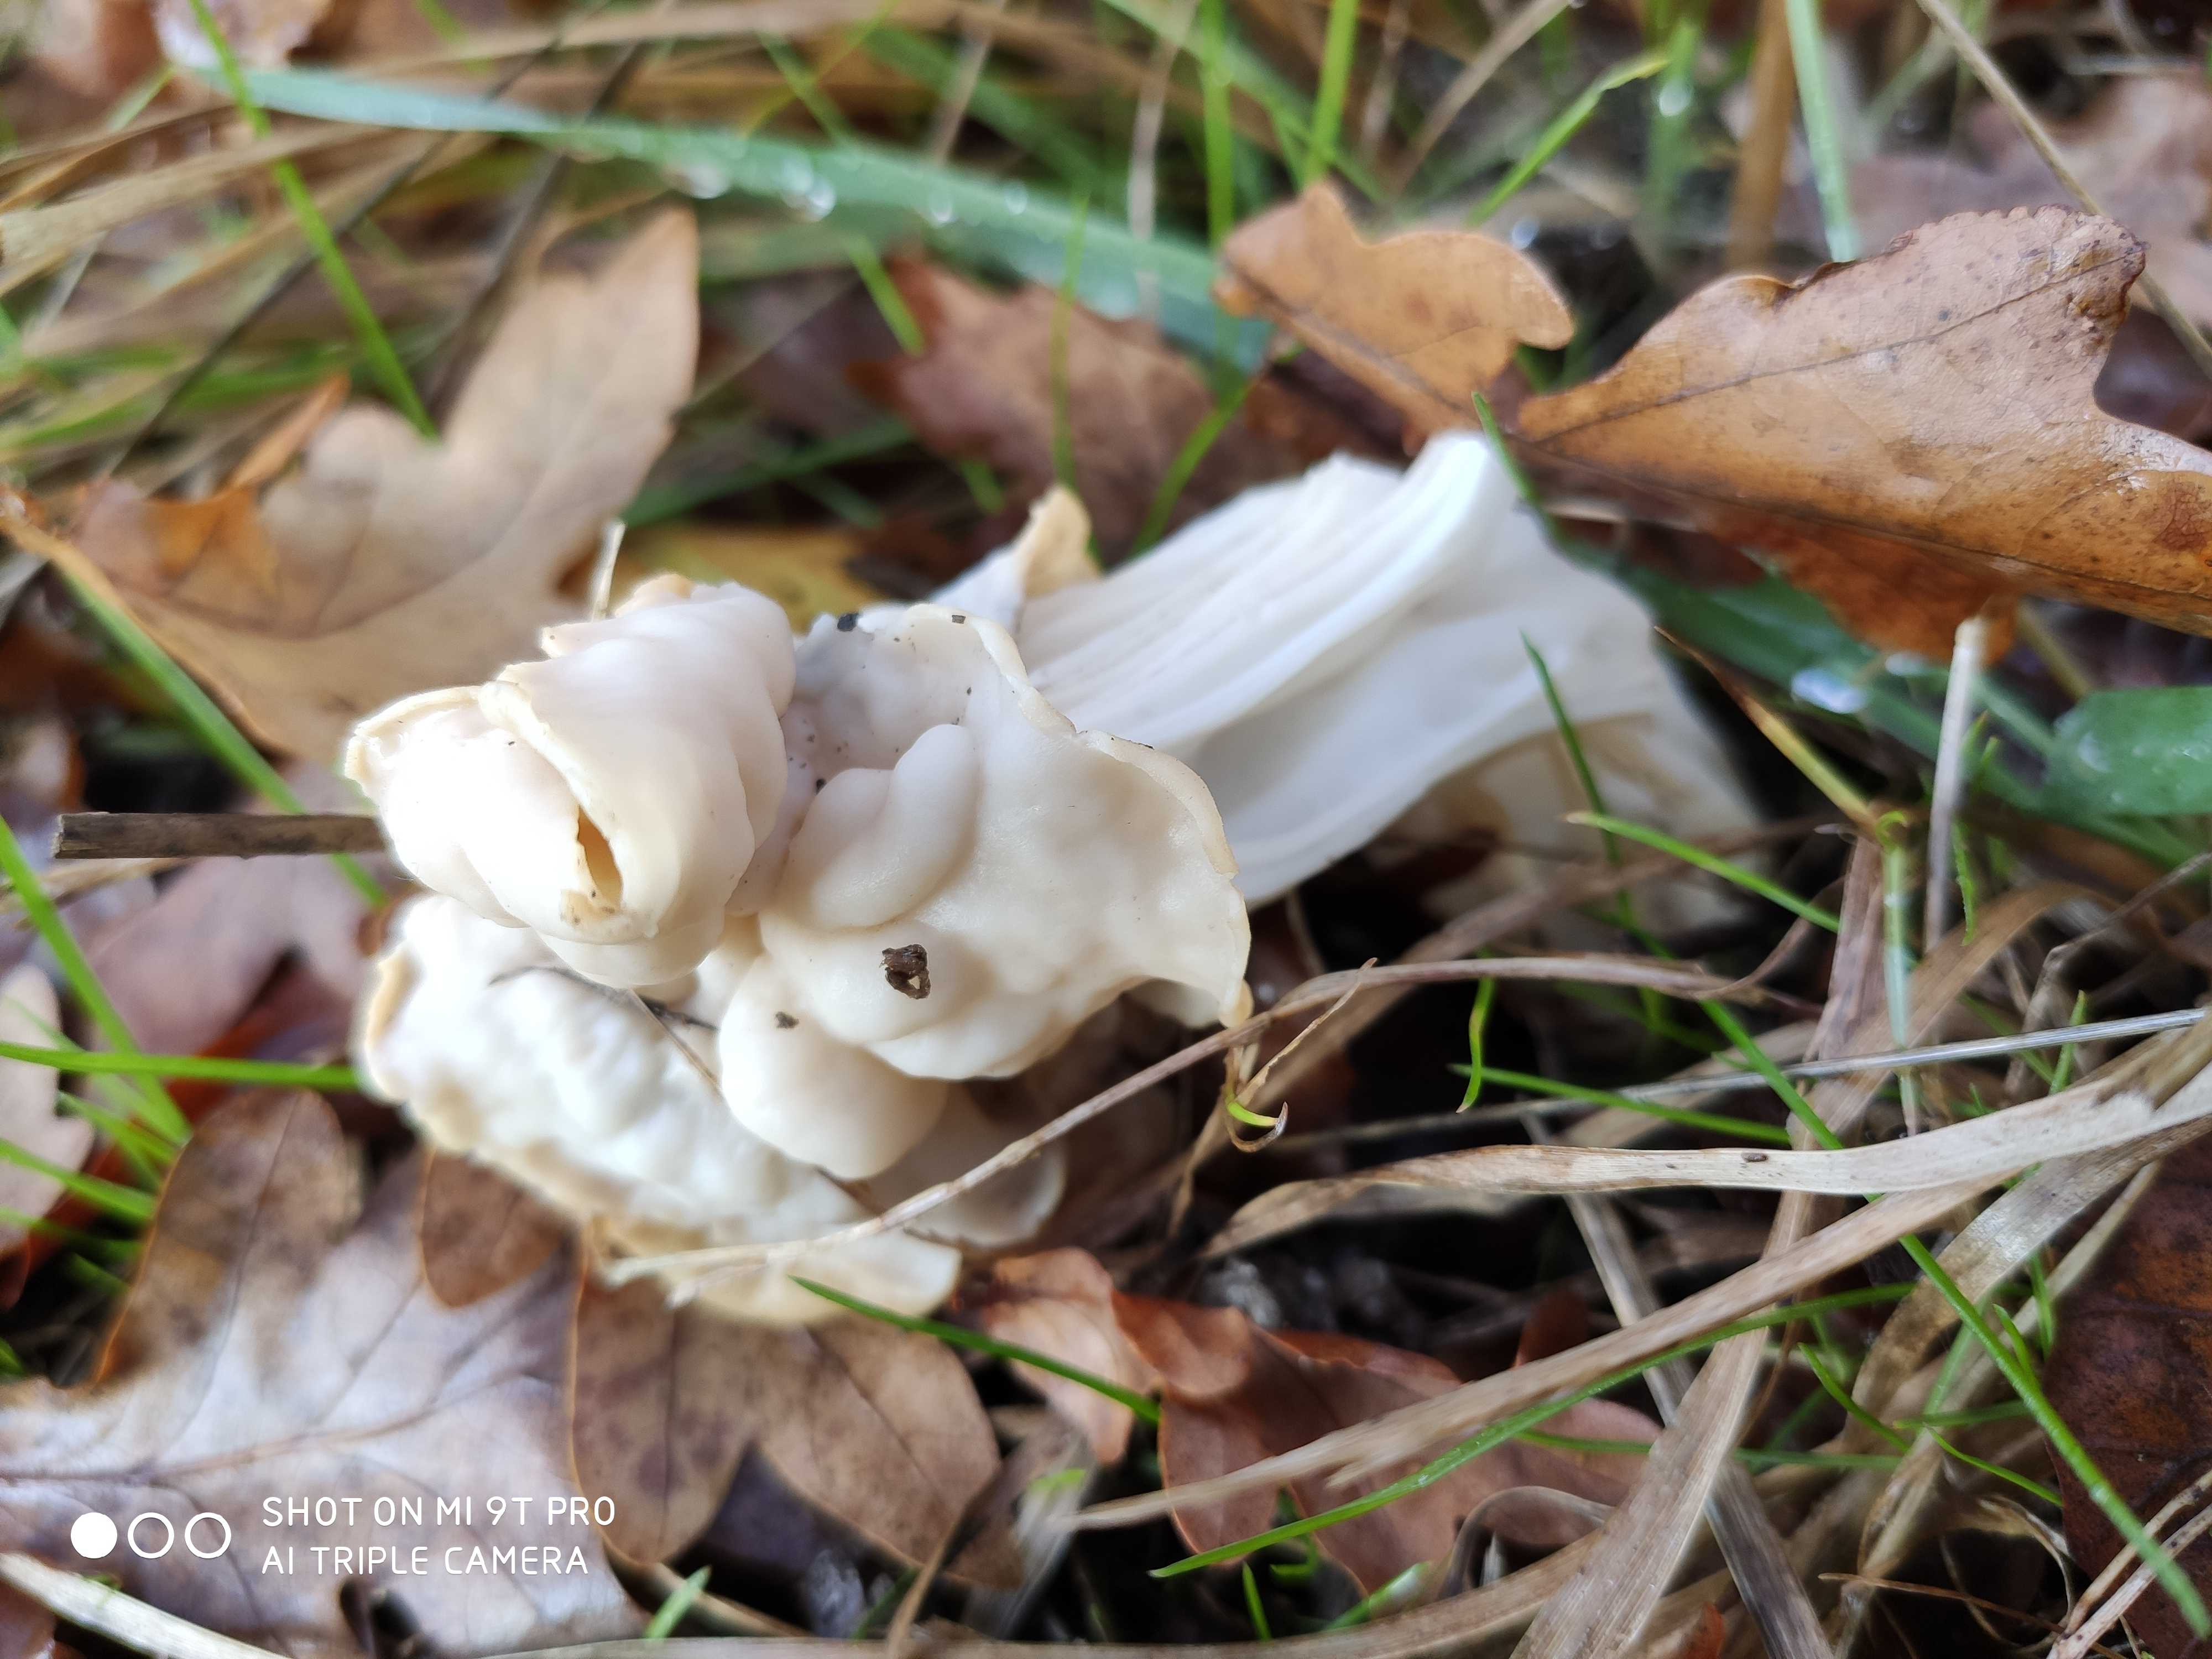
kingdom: Fungi
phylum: Ascomycota
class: Pezizomycetes
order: Pezizales
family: Helvellaceae
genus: Helvella
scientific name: Helvella crispa
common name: kruset foldhat
